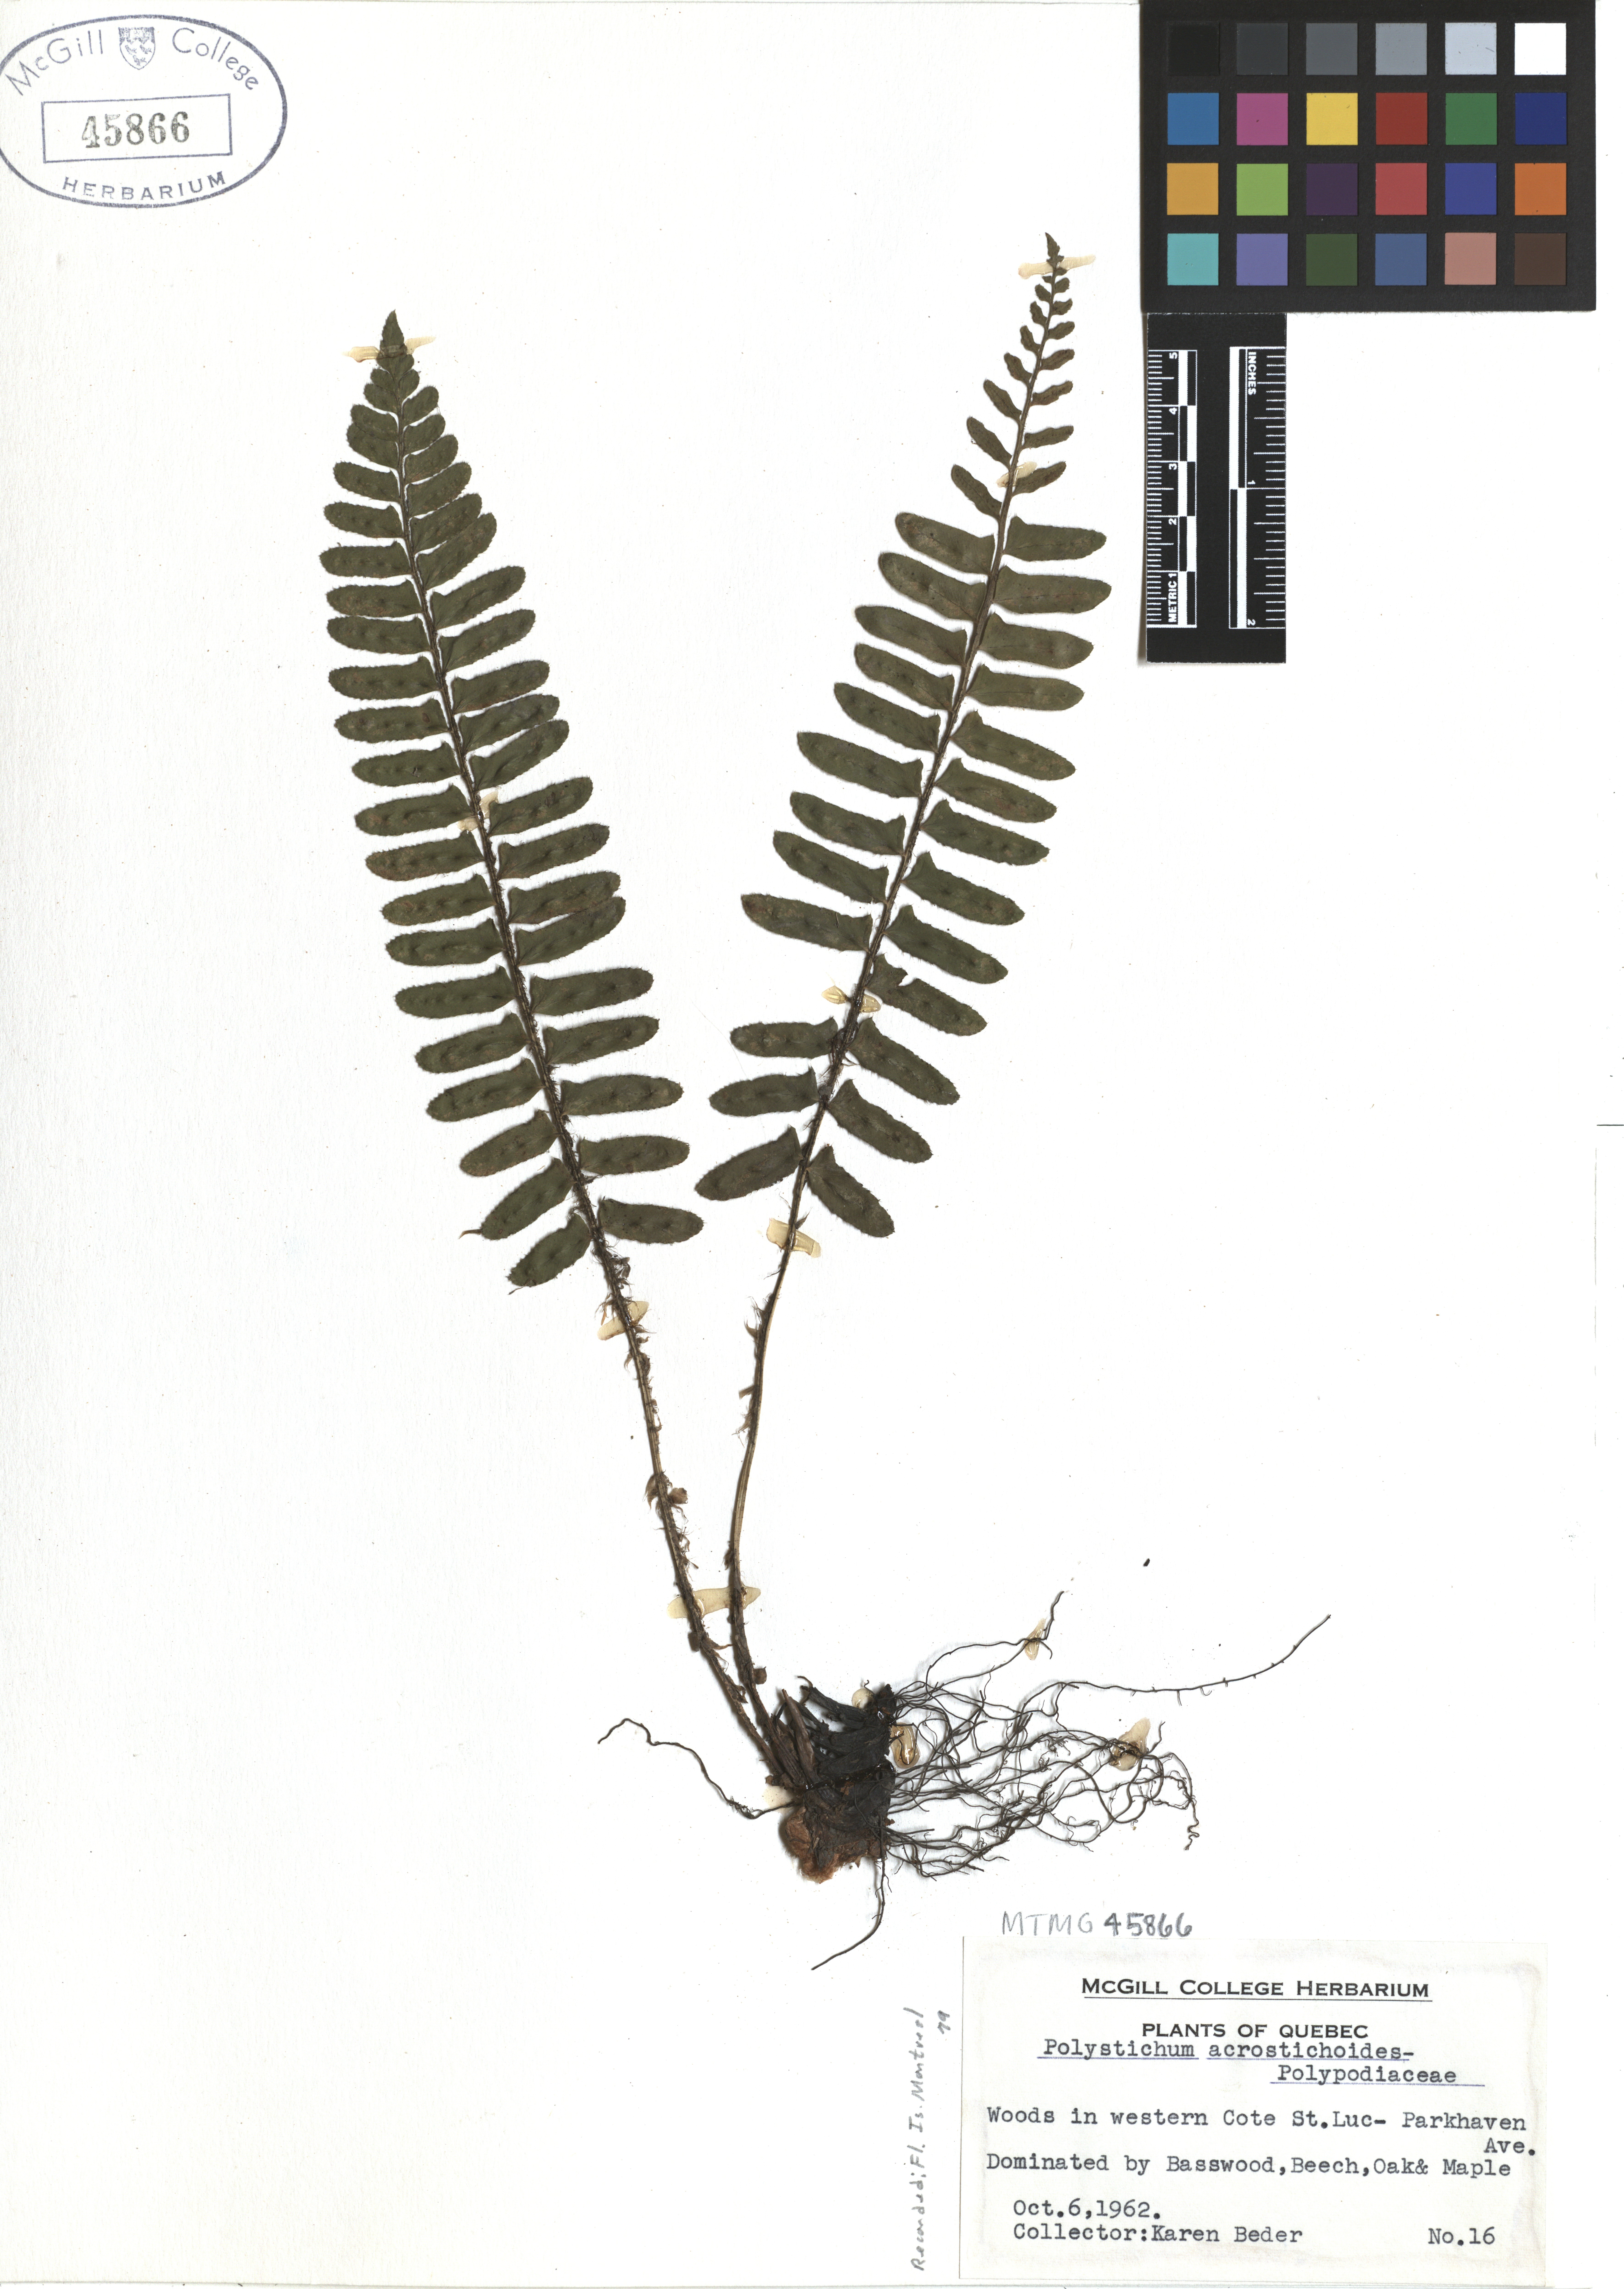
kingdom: Plantae
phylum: Tracheophyta
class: Polypodiopsida
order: Polypodiales
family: Dryopteridaceae
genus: Polystichum
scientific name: Polystichum acrostichoides
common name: Christmas fern
